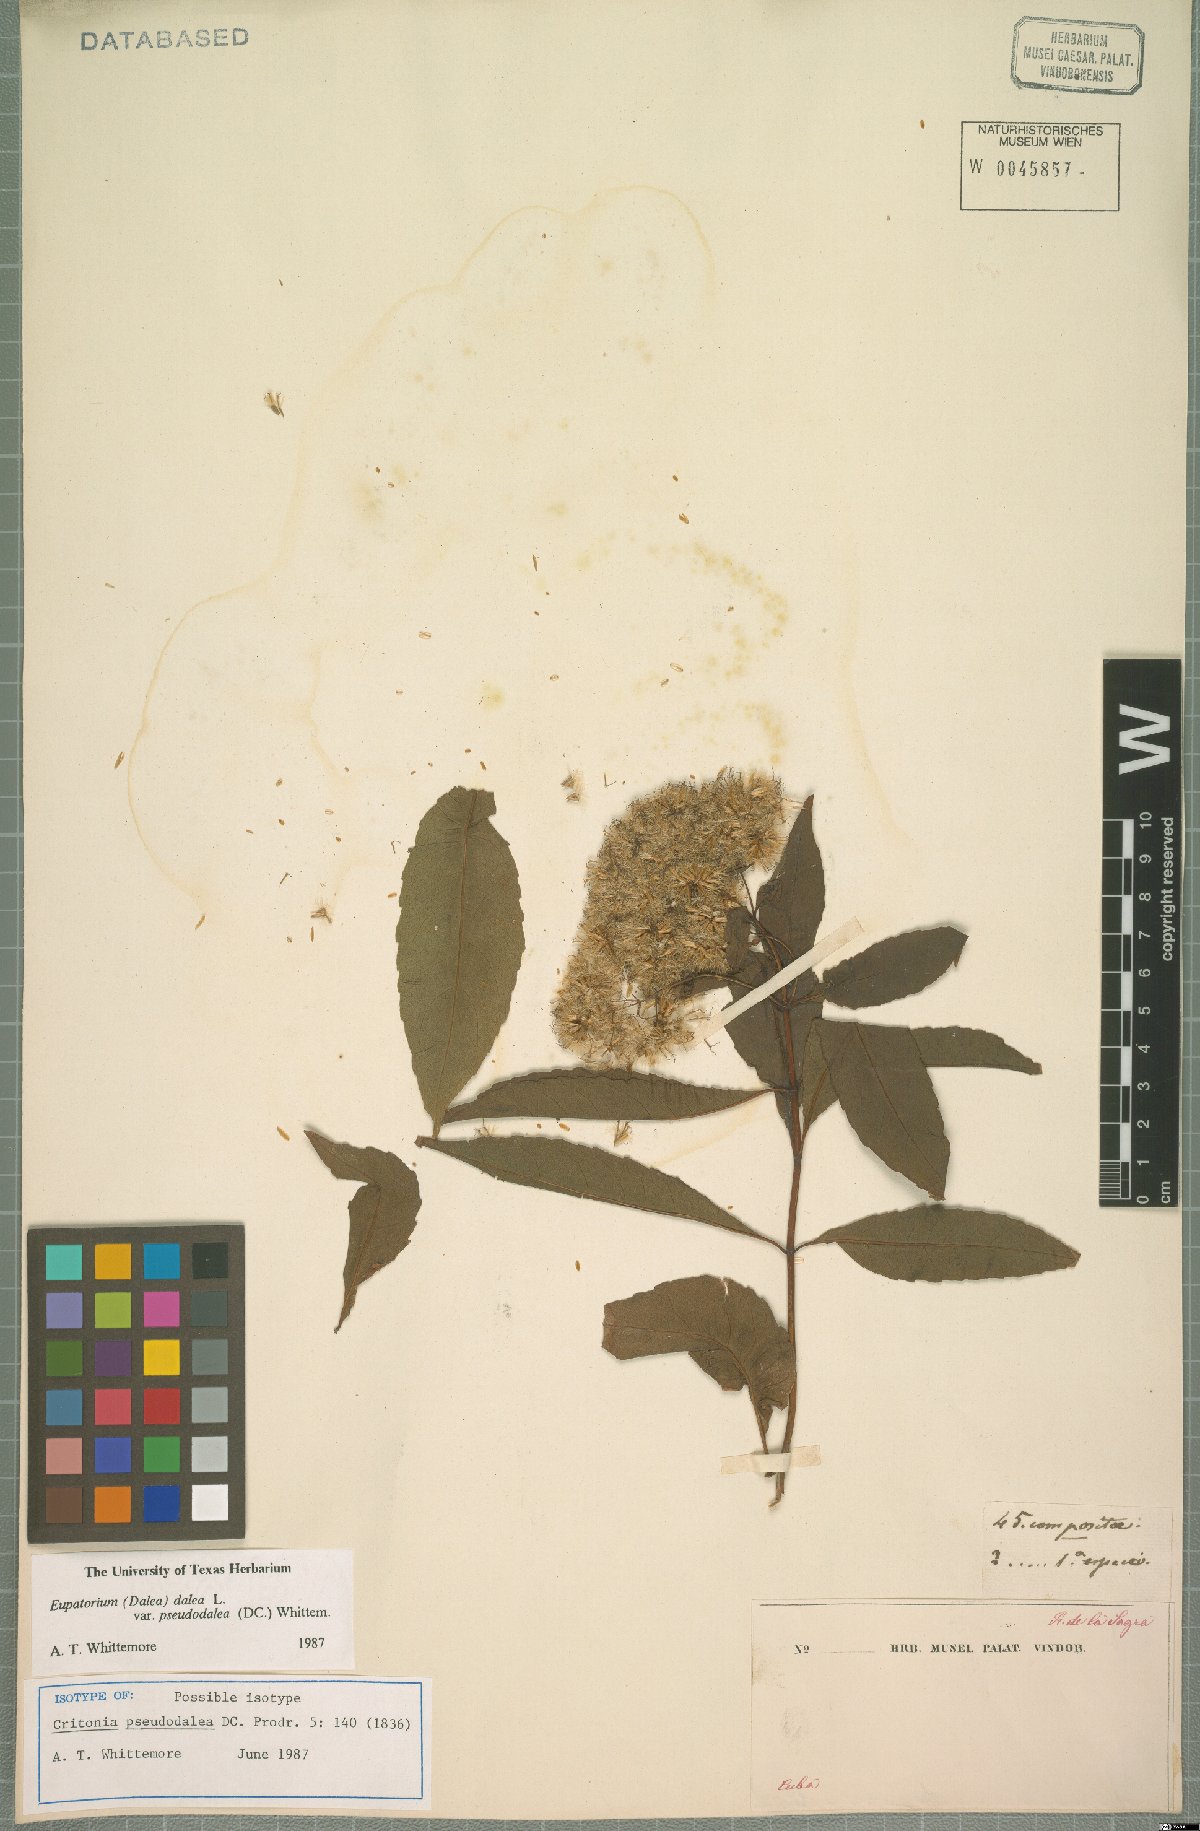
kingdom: Plantae
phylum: Tracheophyta
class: Magnoliopsida
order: Asterales
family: Asteraceae
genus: Critonia
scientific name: Critonia pseudodalea
